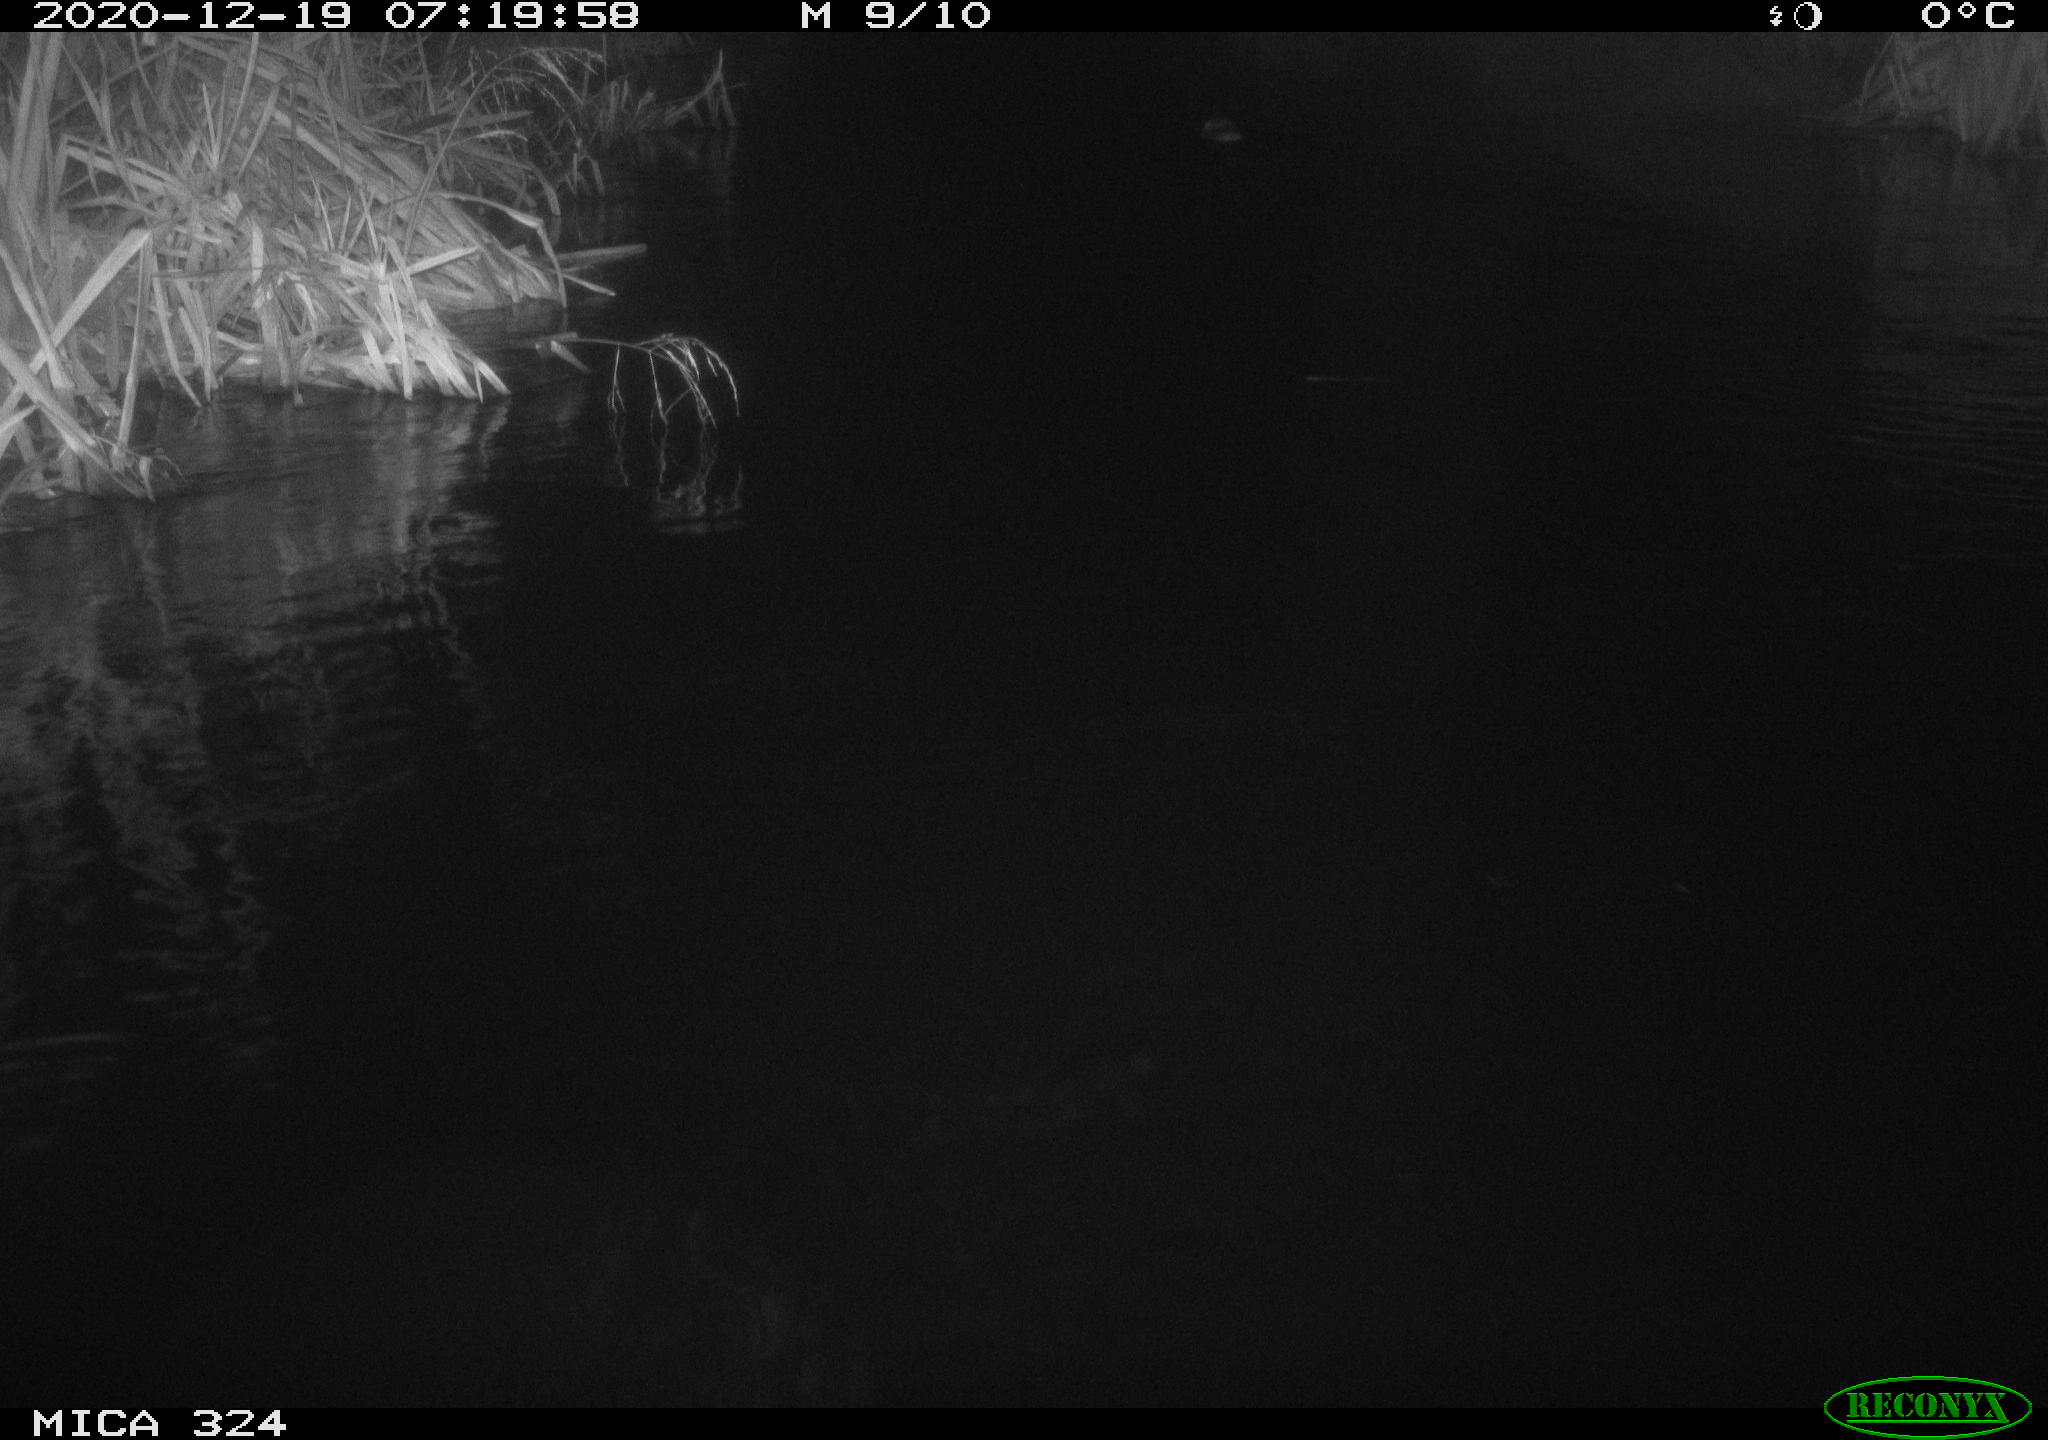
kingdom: Animalia
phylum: Chordata
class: Mammalia
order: Rodentia
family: Cricetidae
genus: Ondatra
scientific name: Ondatra zibethicus
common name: Muskrat
